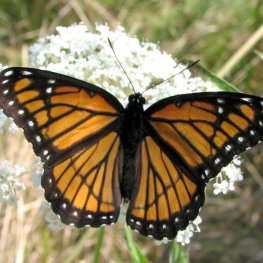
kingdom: Animalia
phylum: Arthropoda
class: Insecta
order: Lepidoptera
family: Nymphalidae
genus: Limenitis
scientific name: Limenitis archippus
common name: Viceroy
